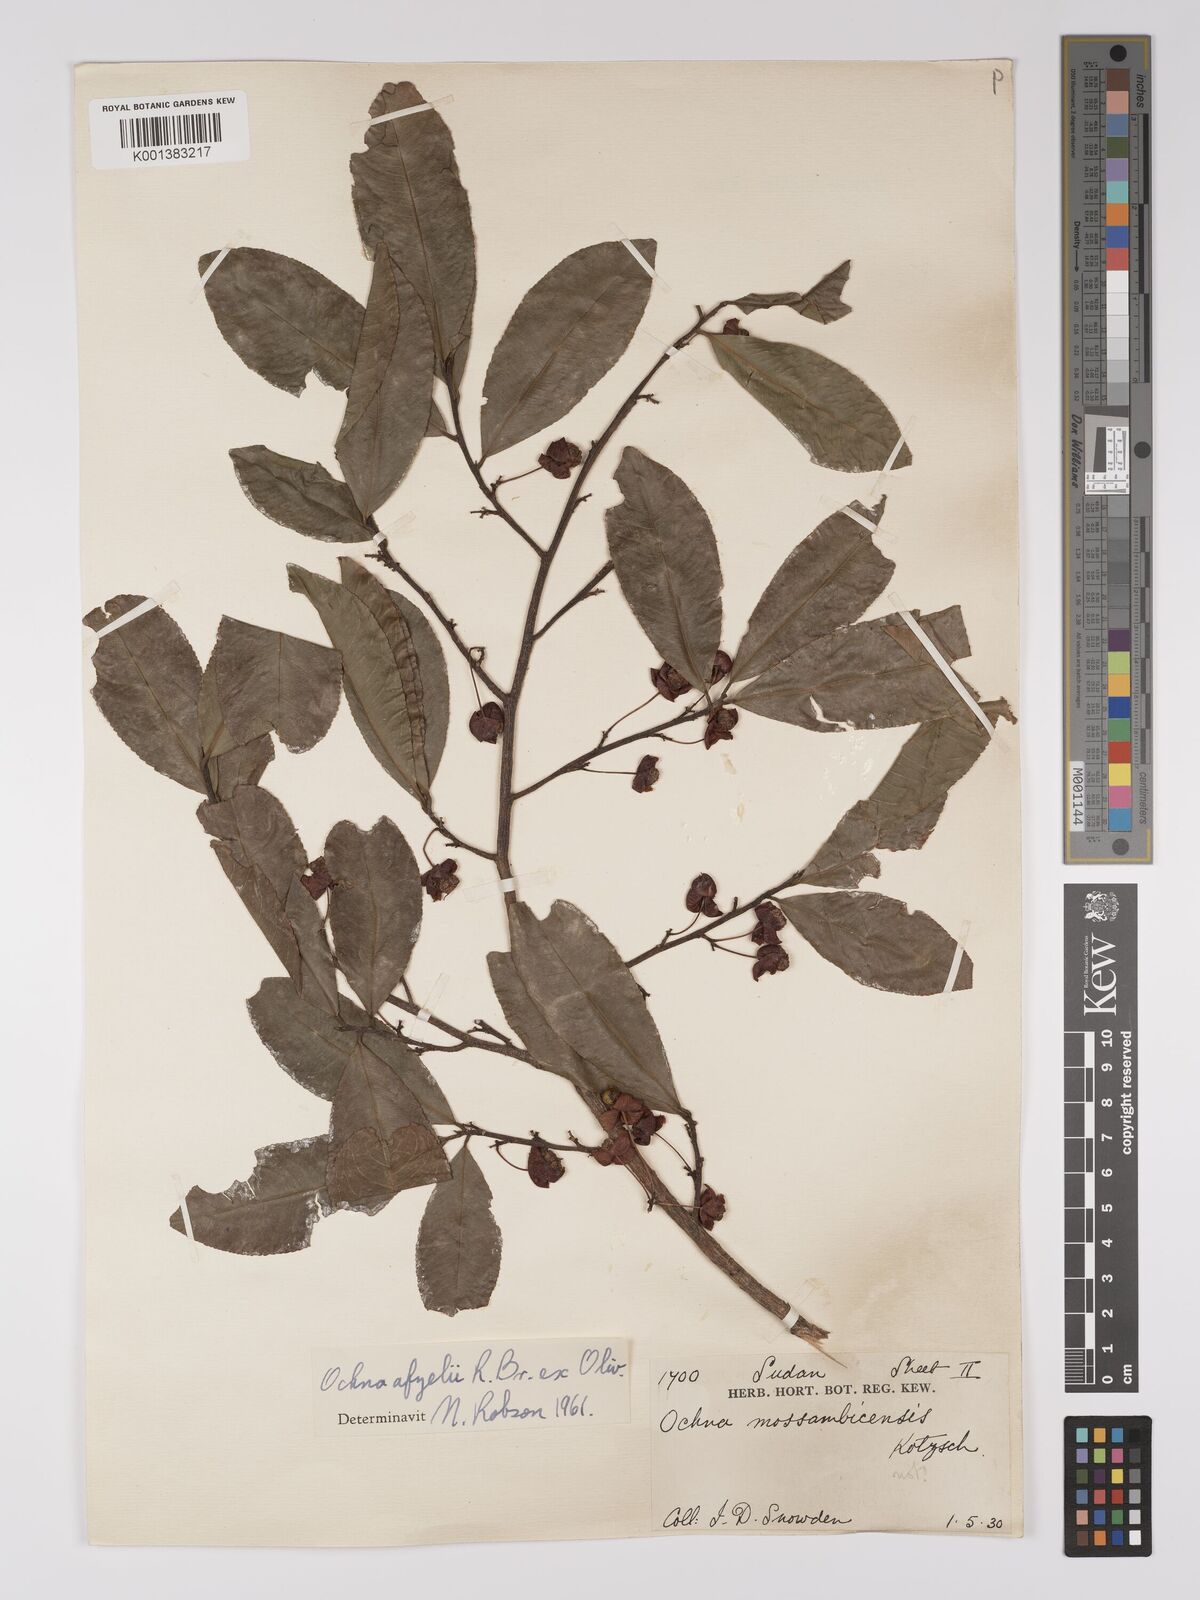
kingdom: Plantae
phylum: Tracheophyta
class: Magnoliopsida
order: Malpighiales
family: Ochnaceae
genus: Ochna
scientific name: Ochna afzelii
